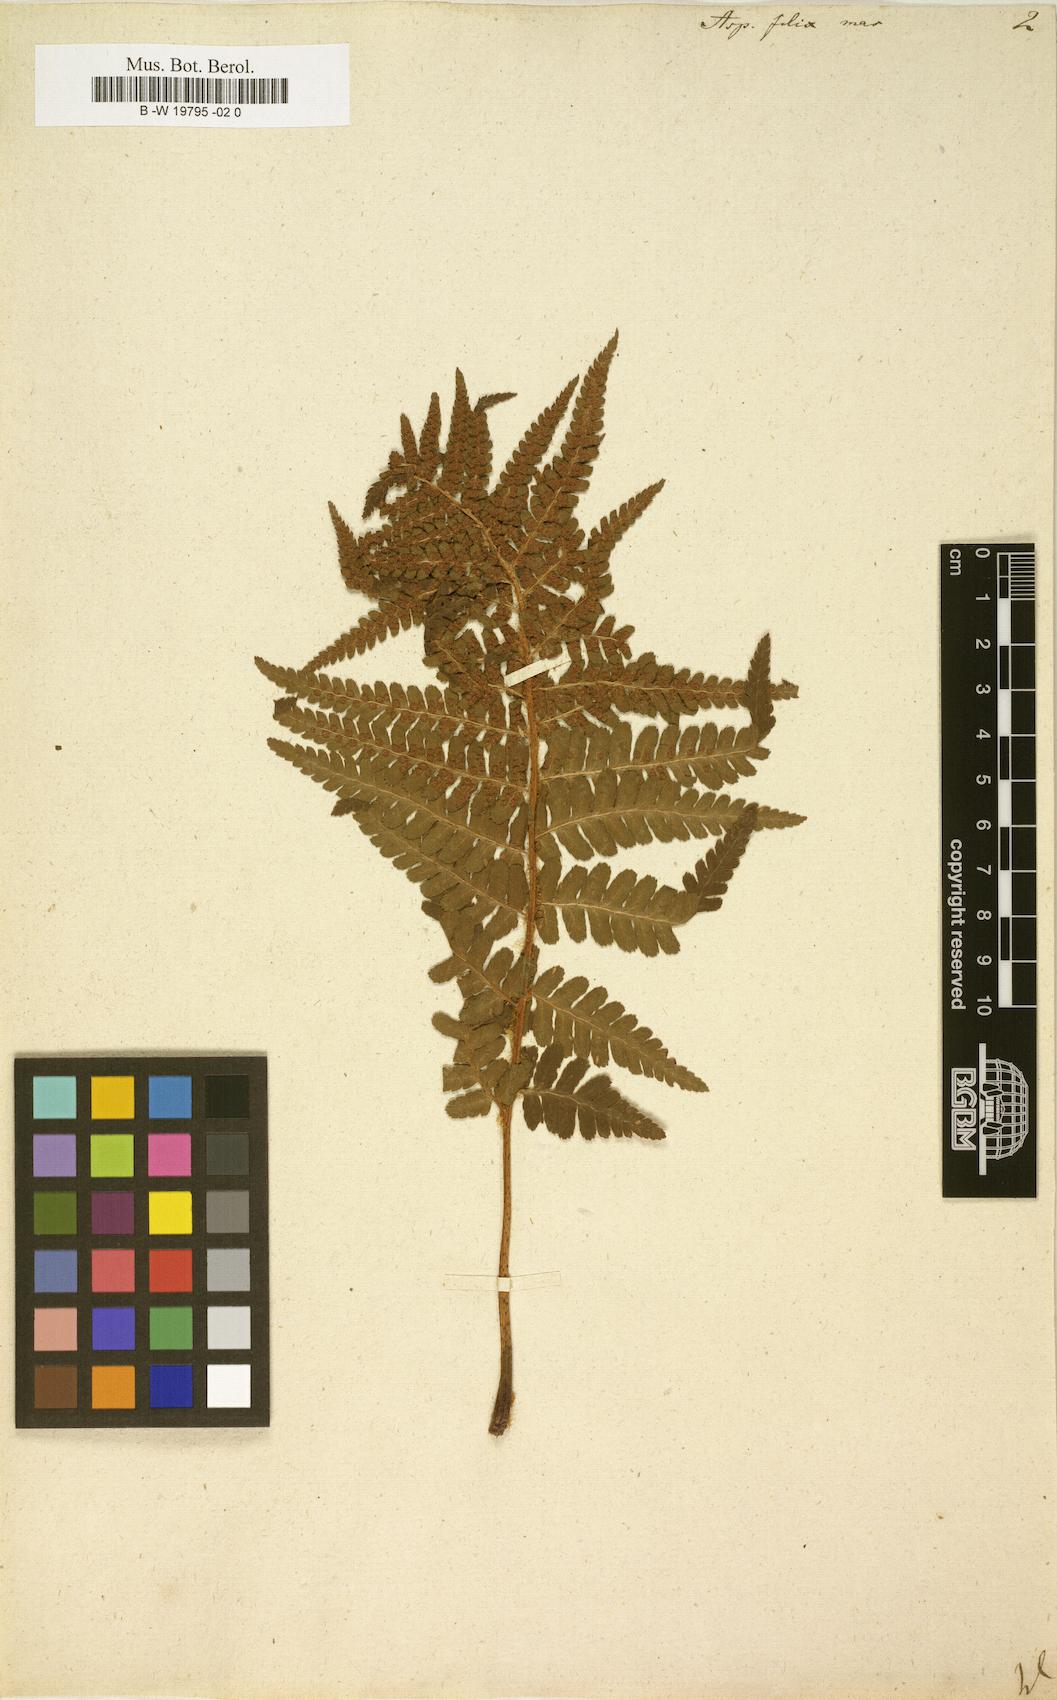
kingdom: Plantae
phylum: Tracheophyta
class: Polypodiopsida
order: Polypodiales
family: Dryopteridaceae
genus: Dryopteris
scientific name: Dryopteris filix-mas
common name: Male fern
